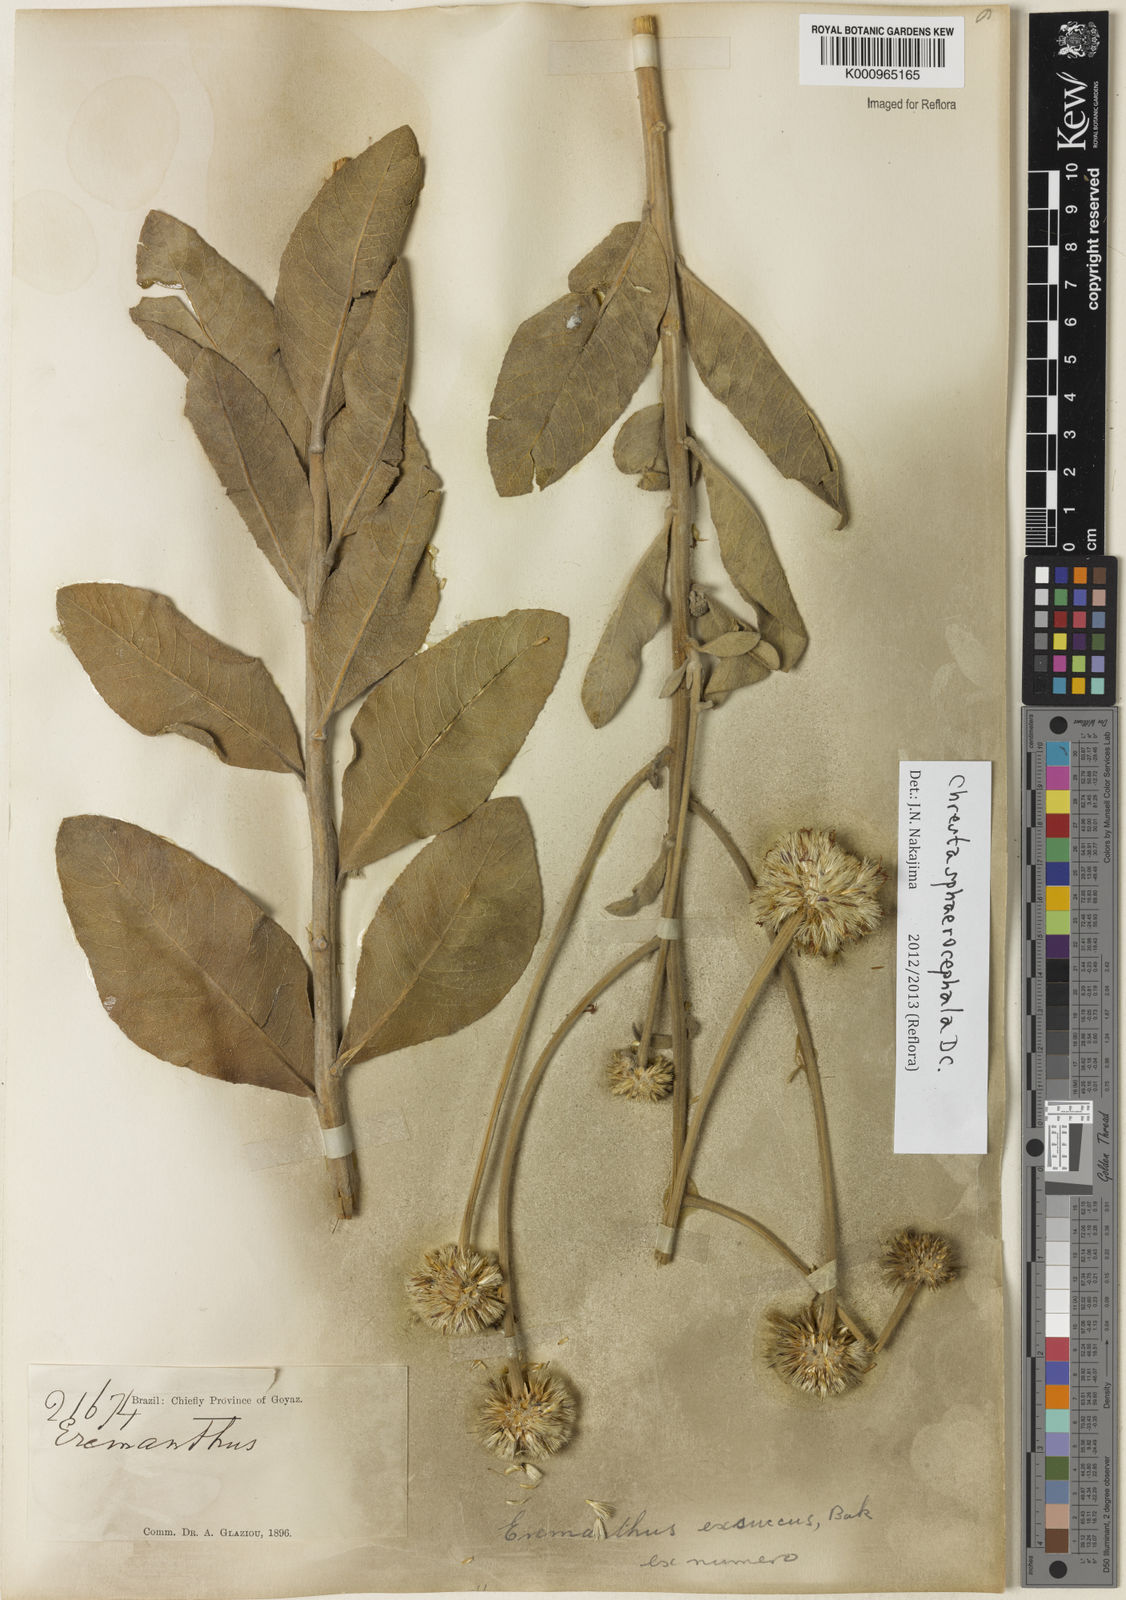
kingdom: Plantae
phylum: Tracheophyta
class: Magnoliopsida
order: Asterales
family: Asteraceae
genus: Chresta
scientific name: Chresta sphaerocephala
